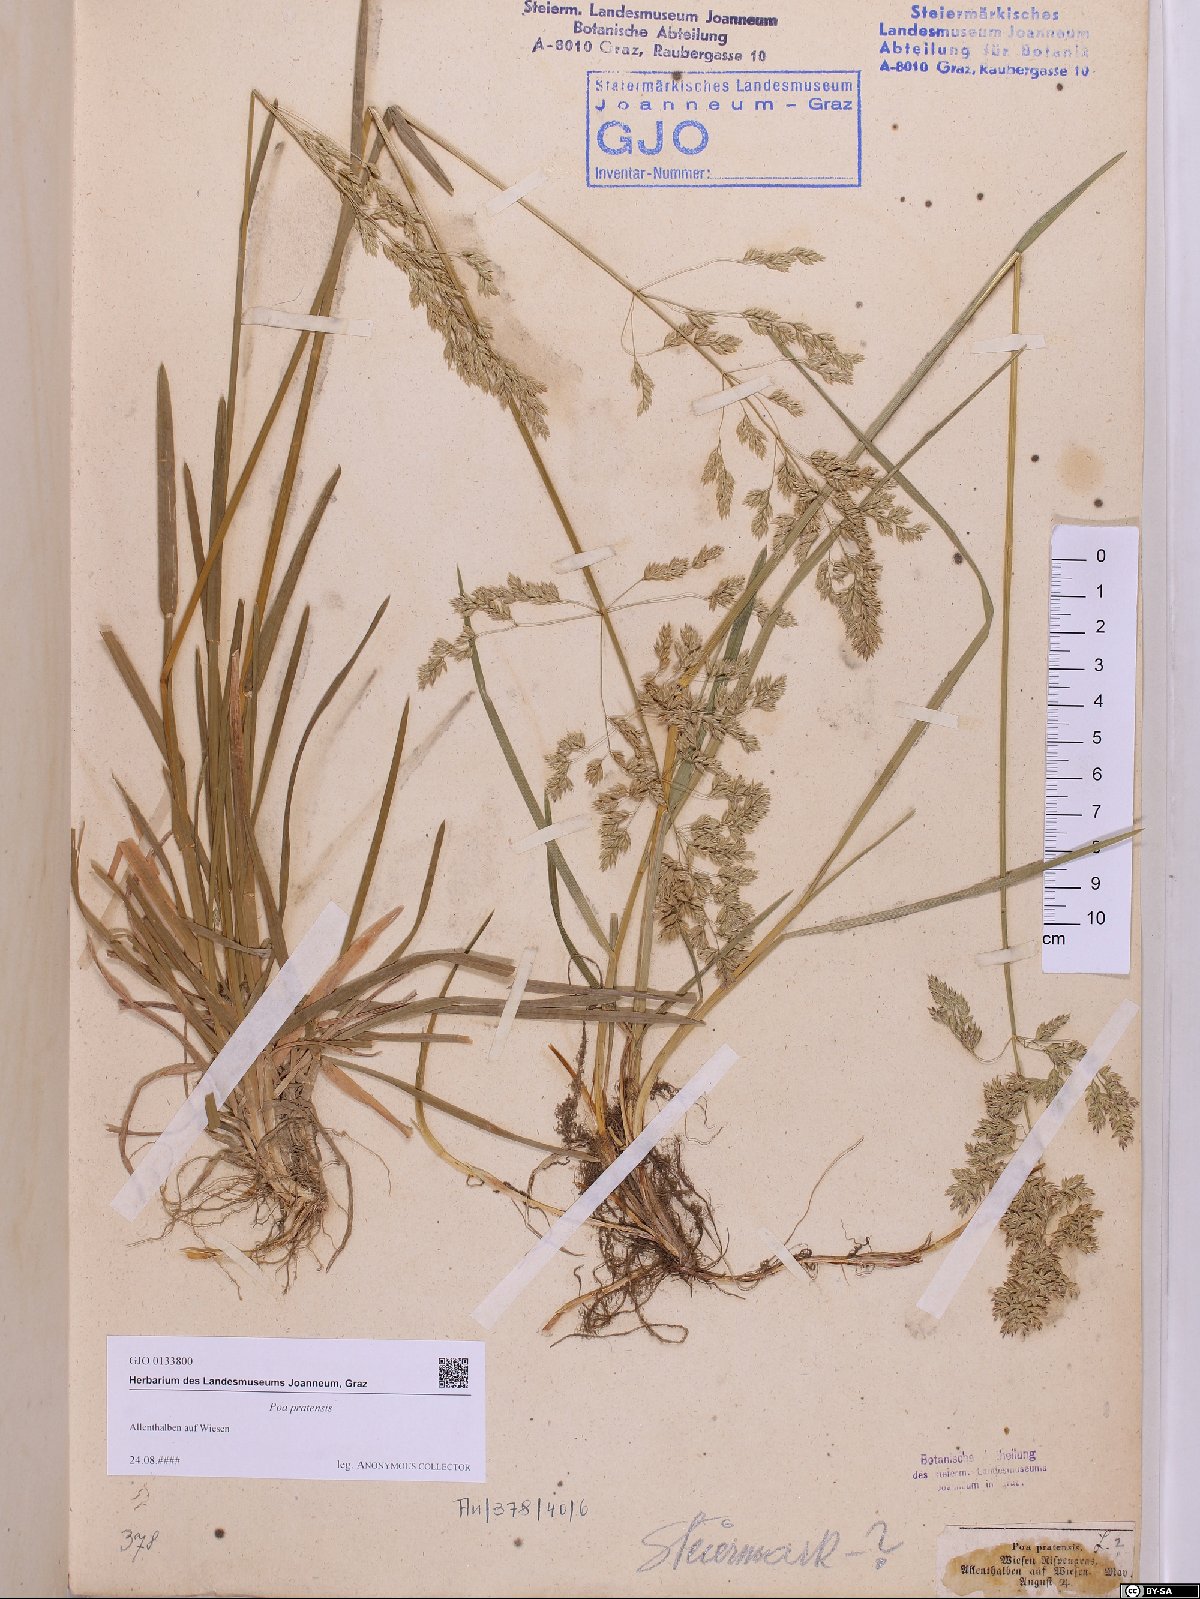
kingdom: Plantae
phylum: Tracheophyta
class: Liliopsida
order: Poales
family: Poaceae
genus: Poa
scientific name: Poa pratensis
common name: Kentucky bluegrass
